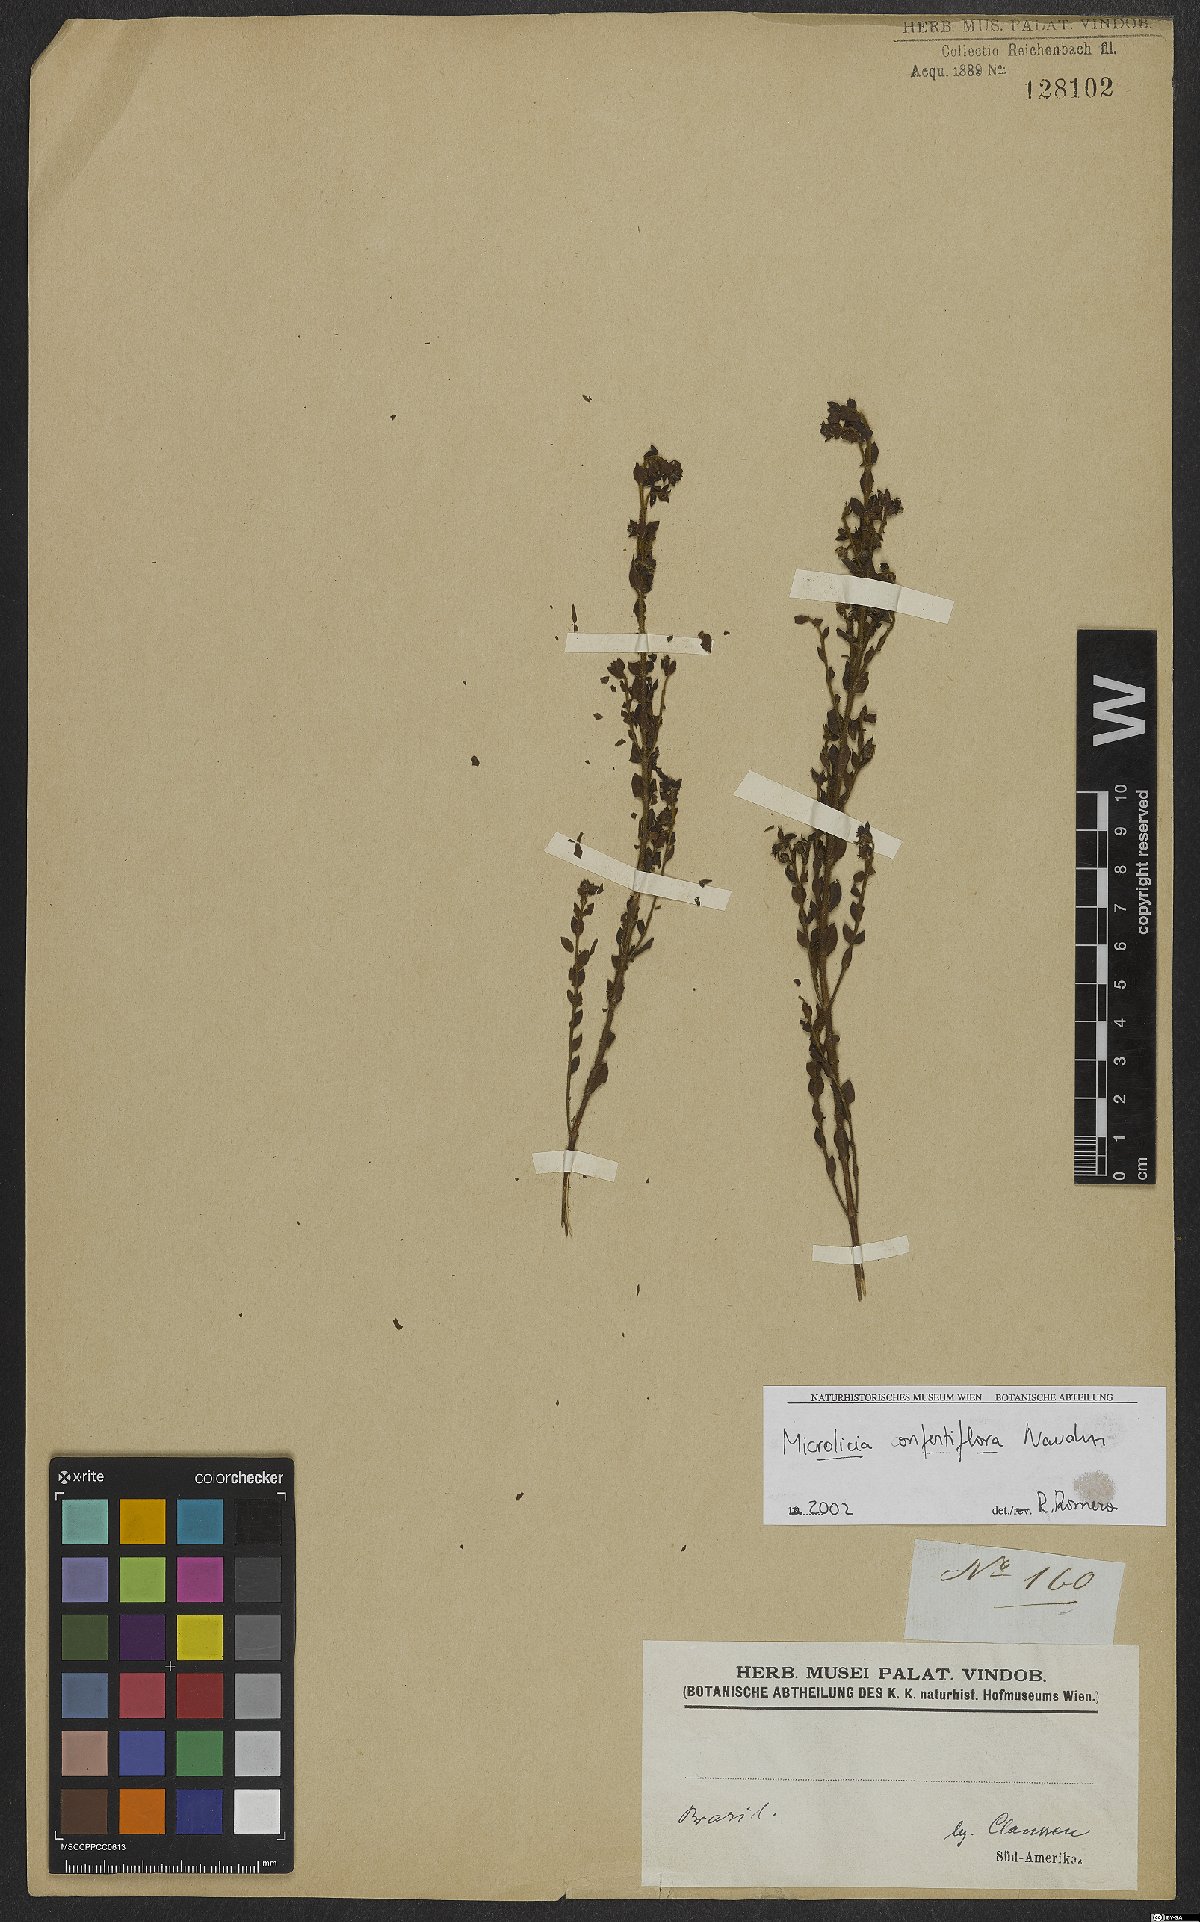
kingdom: Plantae
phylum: Tracheophyta
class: Magnoliopsida
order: Myrtales
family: Melastomataceae
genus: Microlicia
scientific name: Microlicia confertiflora
